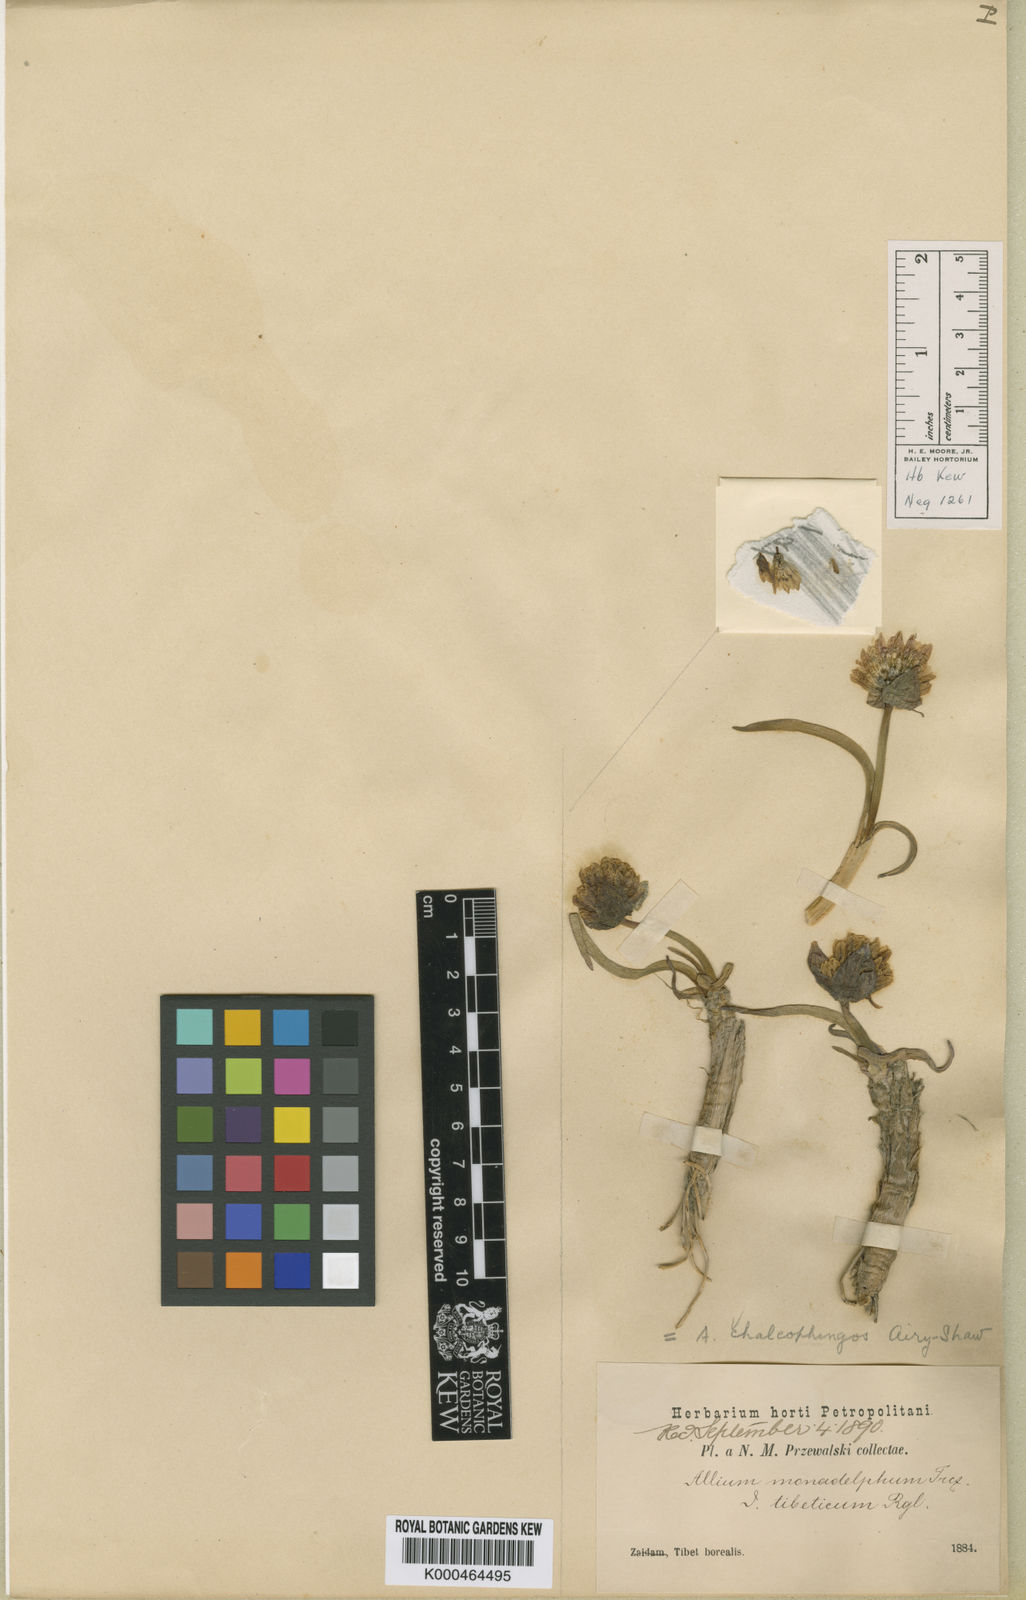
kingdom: Plantae
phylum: Tracheophyta
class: Liliopsida
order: Asparagales
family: Amaryllidaceae
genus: Allium
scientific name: Allium atrosanguineum
